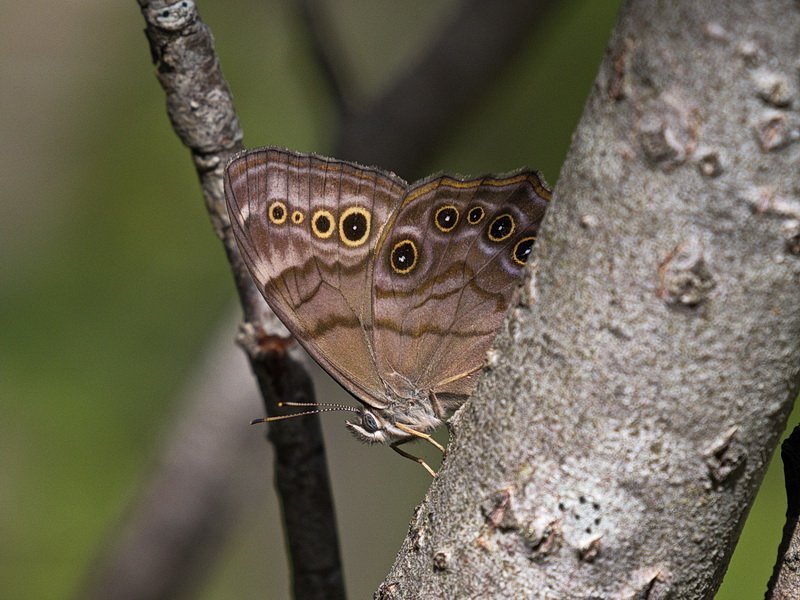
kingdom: Animalia
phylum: Arthropoda
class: Insecta
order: Lepidoptera
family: Nymphalidae
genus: Lethe
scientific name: Lethe anthedon
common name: Northern Pearly-Eye
